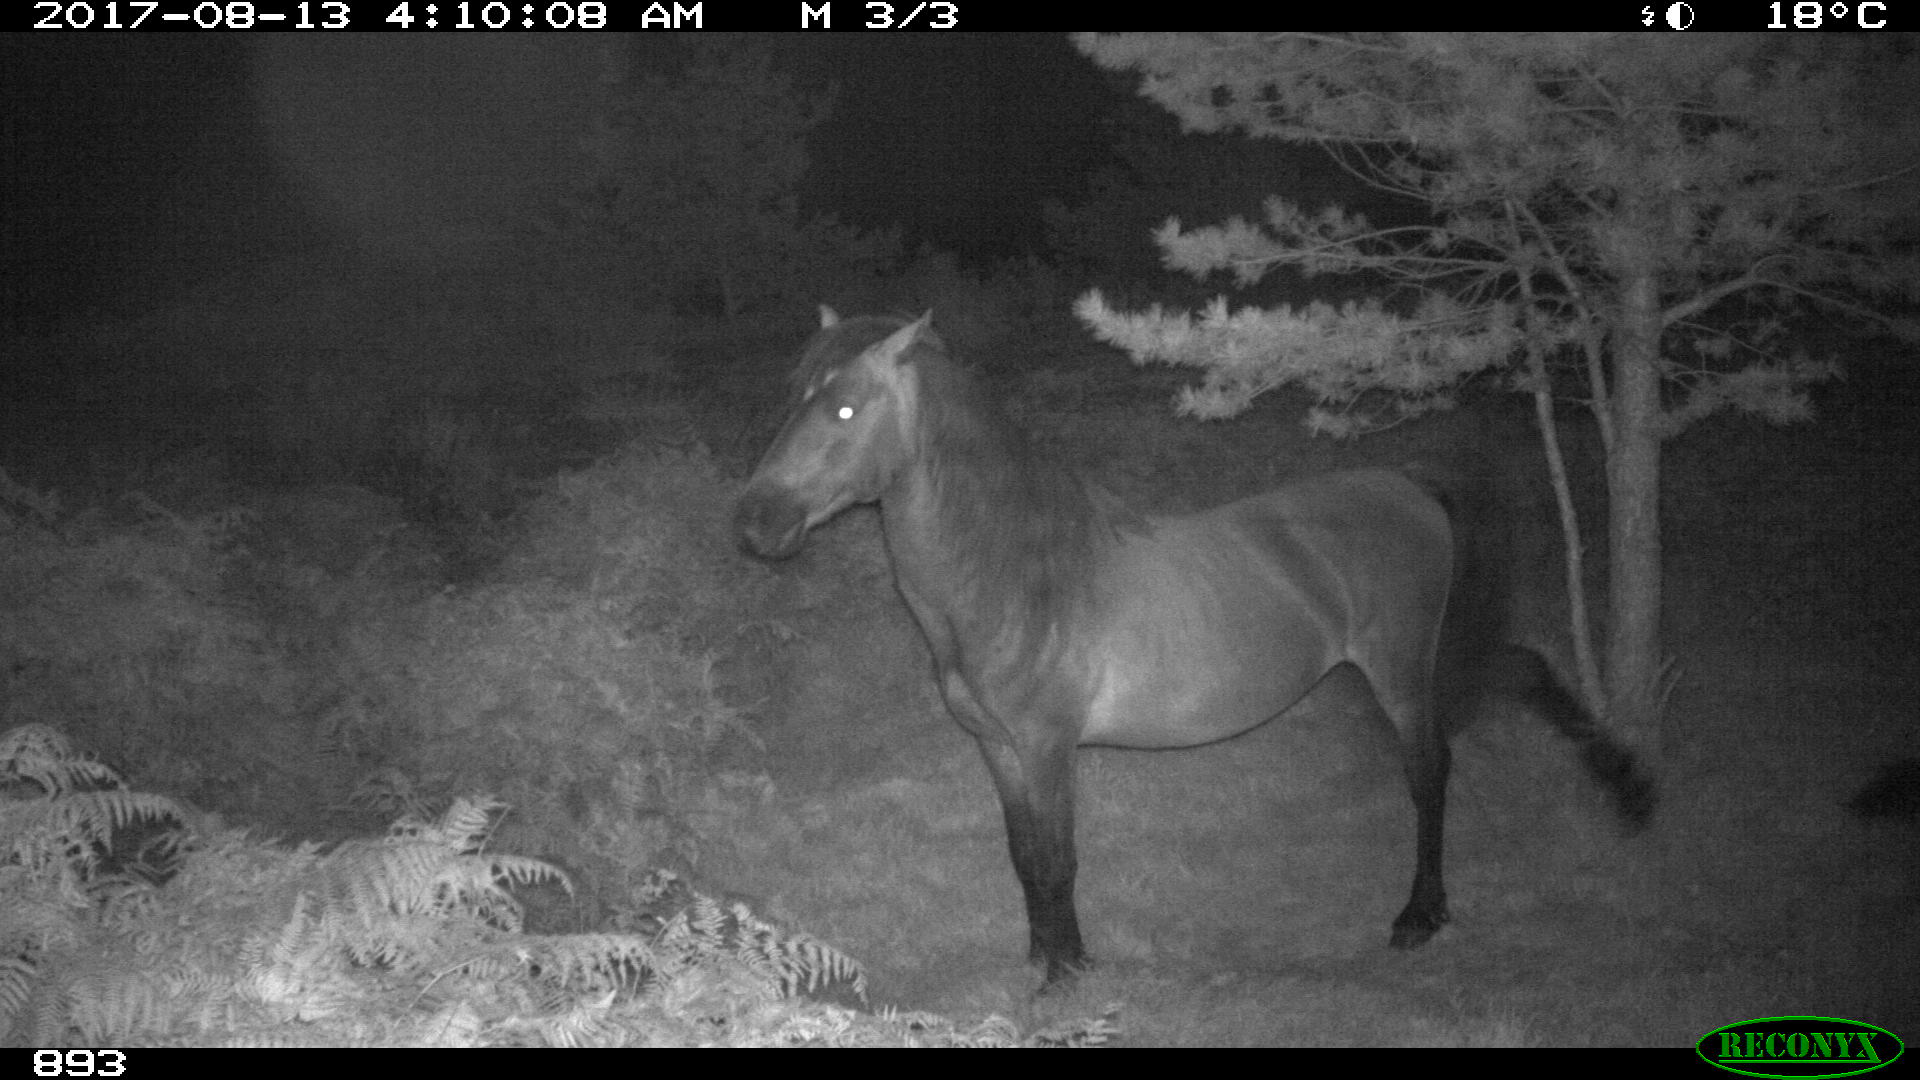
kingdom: Animalia
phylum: Chordata
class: Mammalia
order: Perissodactyla
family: Equidae
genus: Equus
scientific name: Equus caballus
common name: Horse
